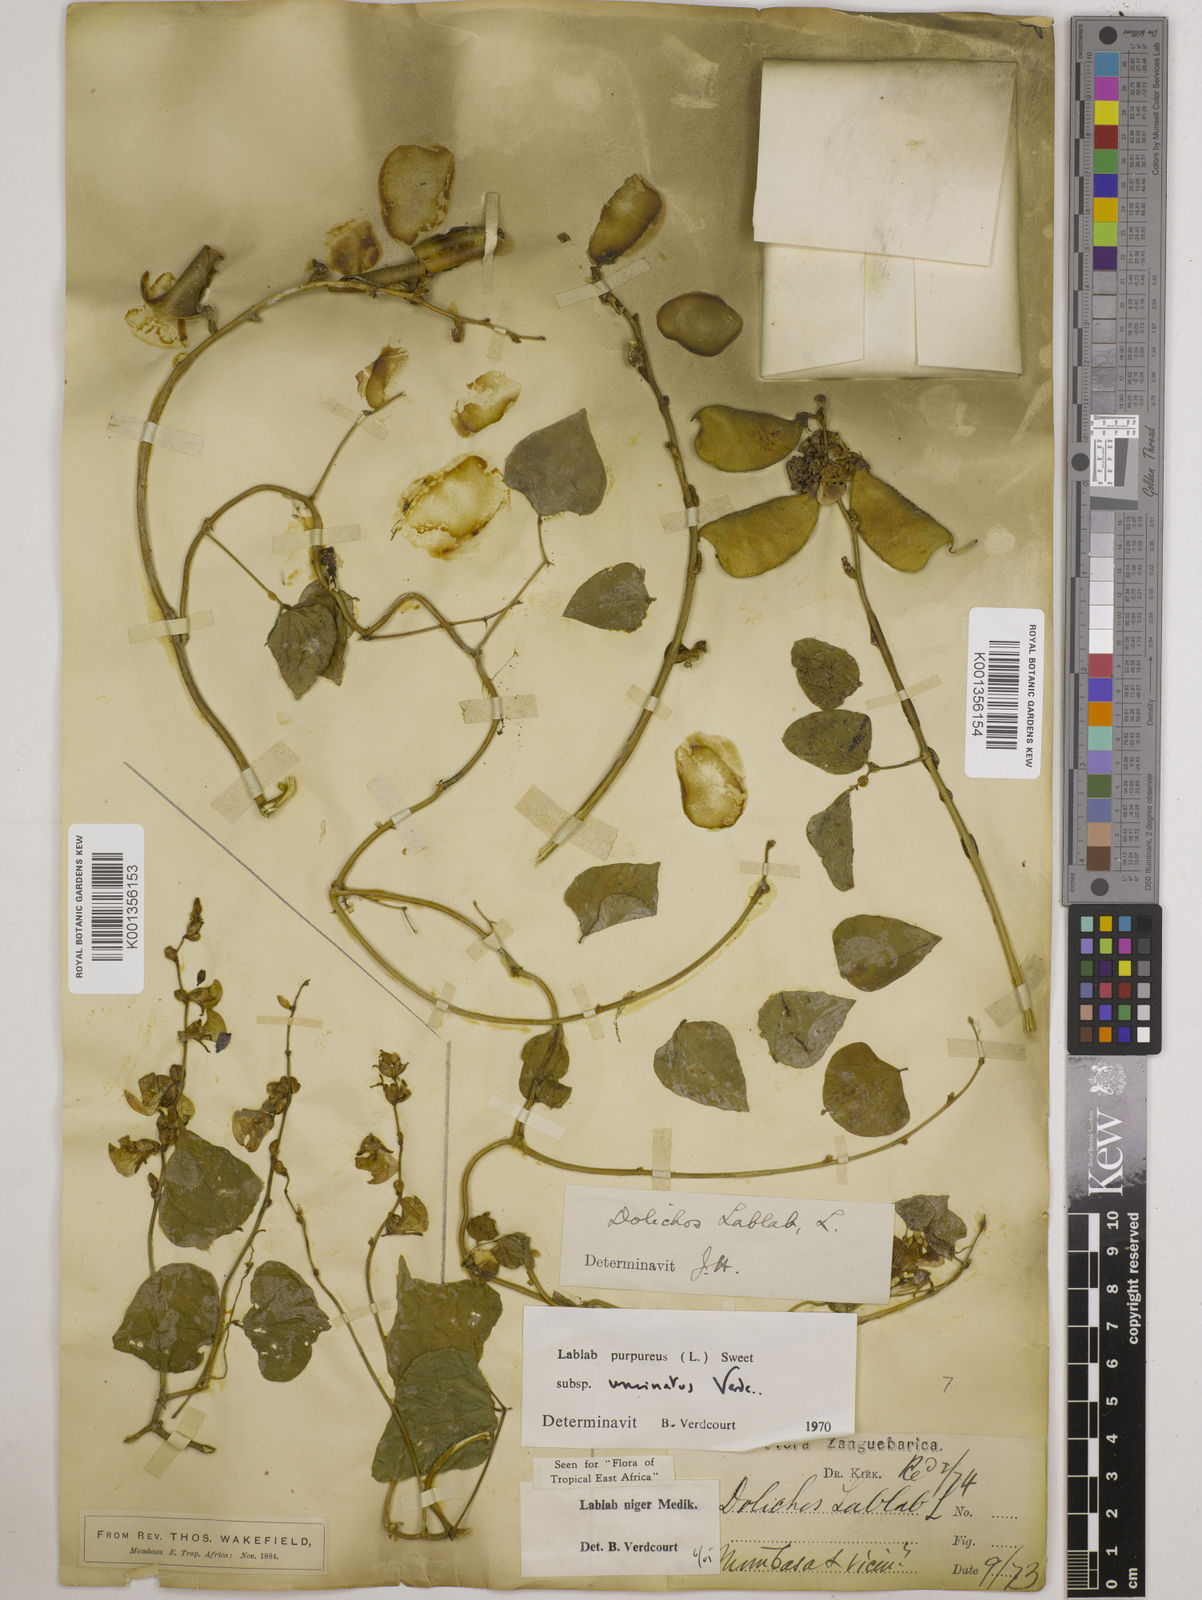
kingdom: Plantae
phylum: Tracheophyta
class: Magnoliopsida
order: Fabales
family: Fabaceae
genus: Lablab
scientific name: Lablab purpureus
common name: Lablab-bean
